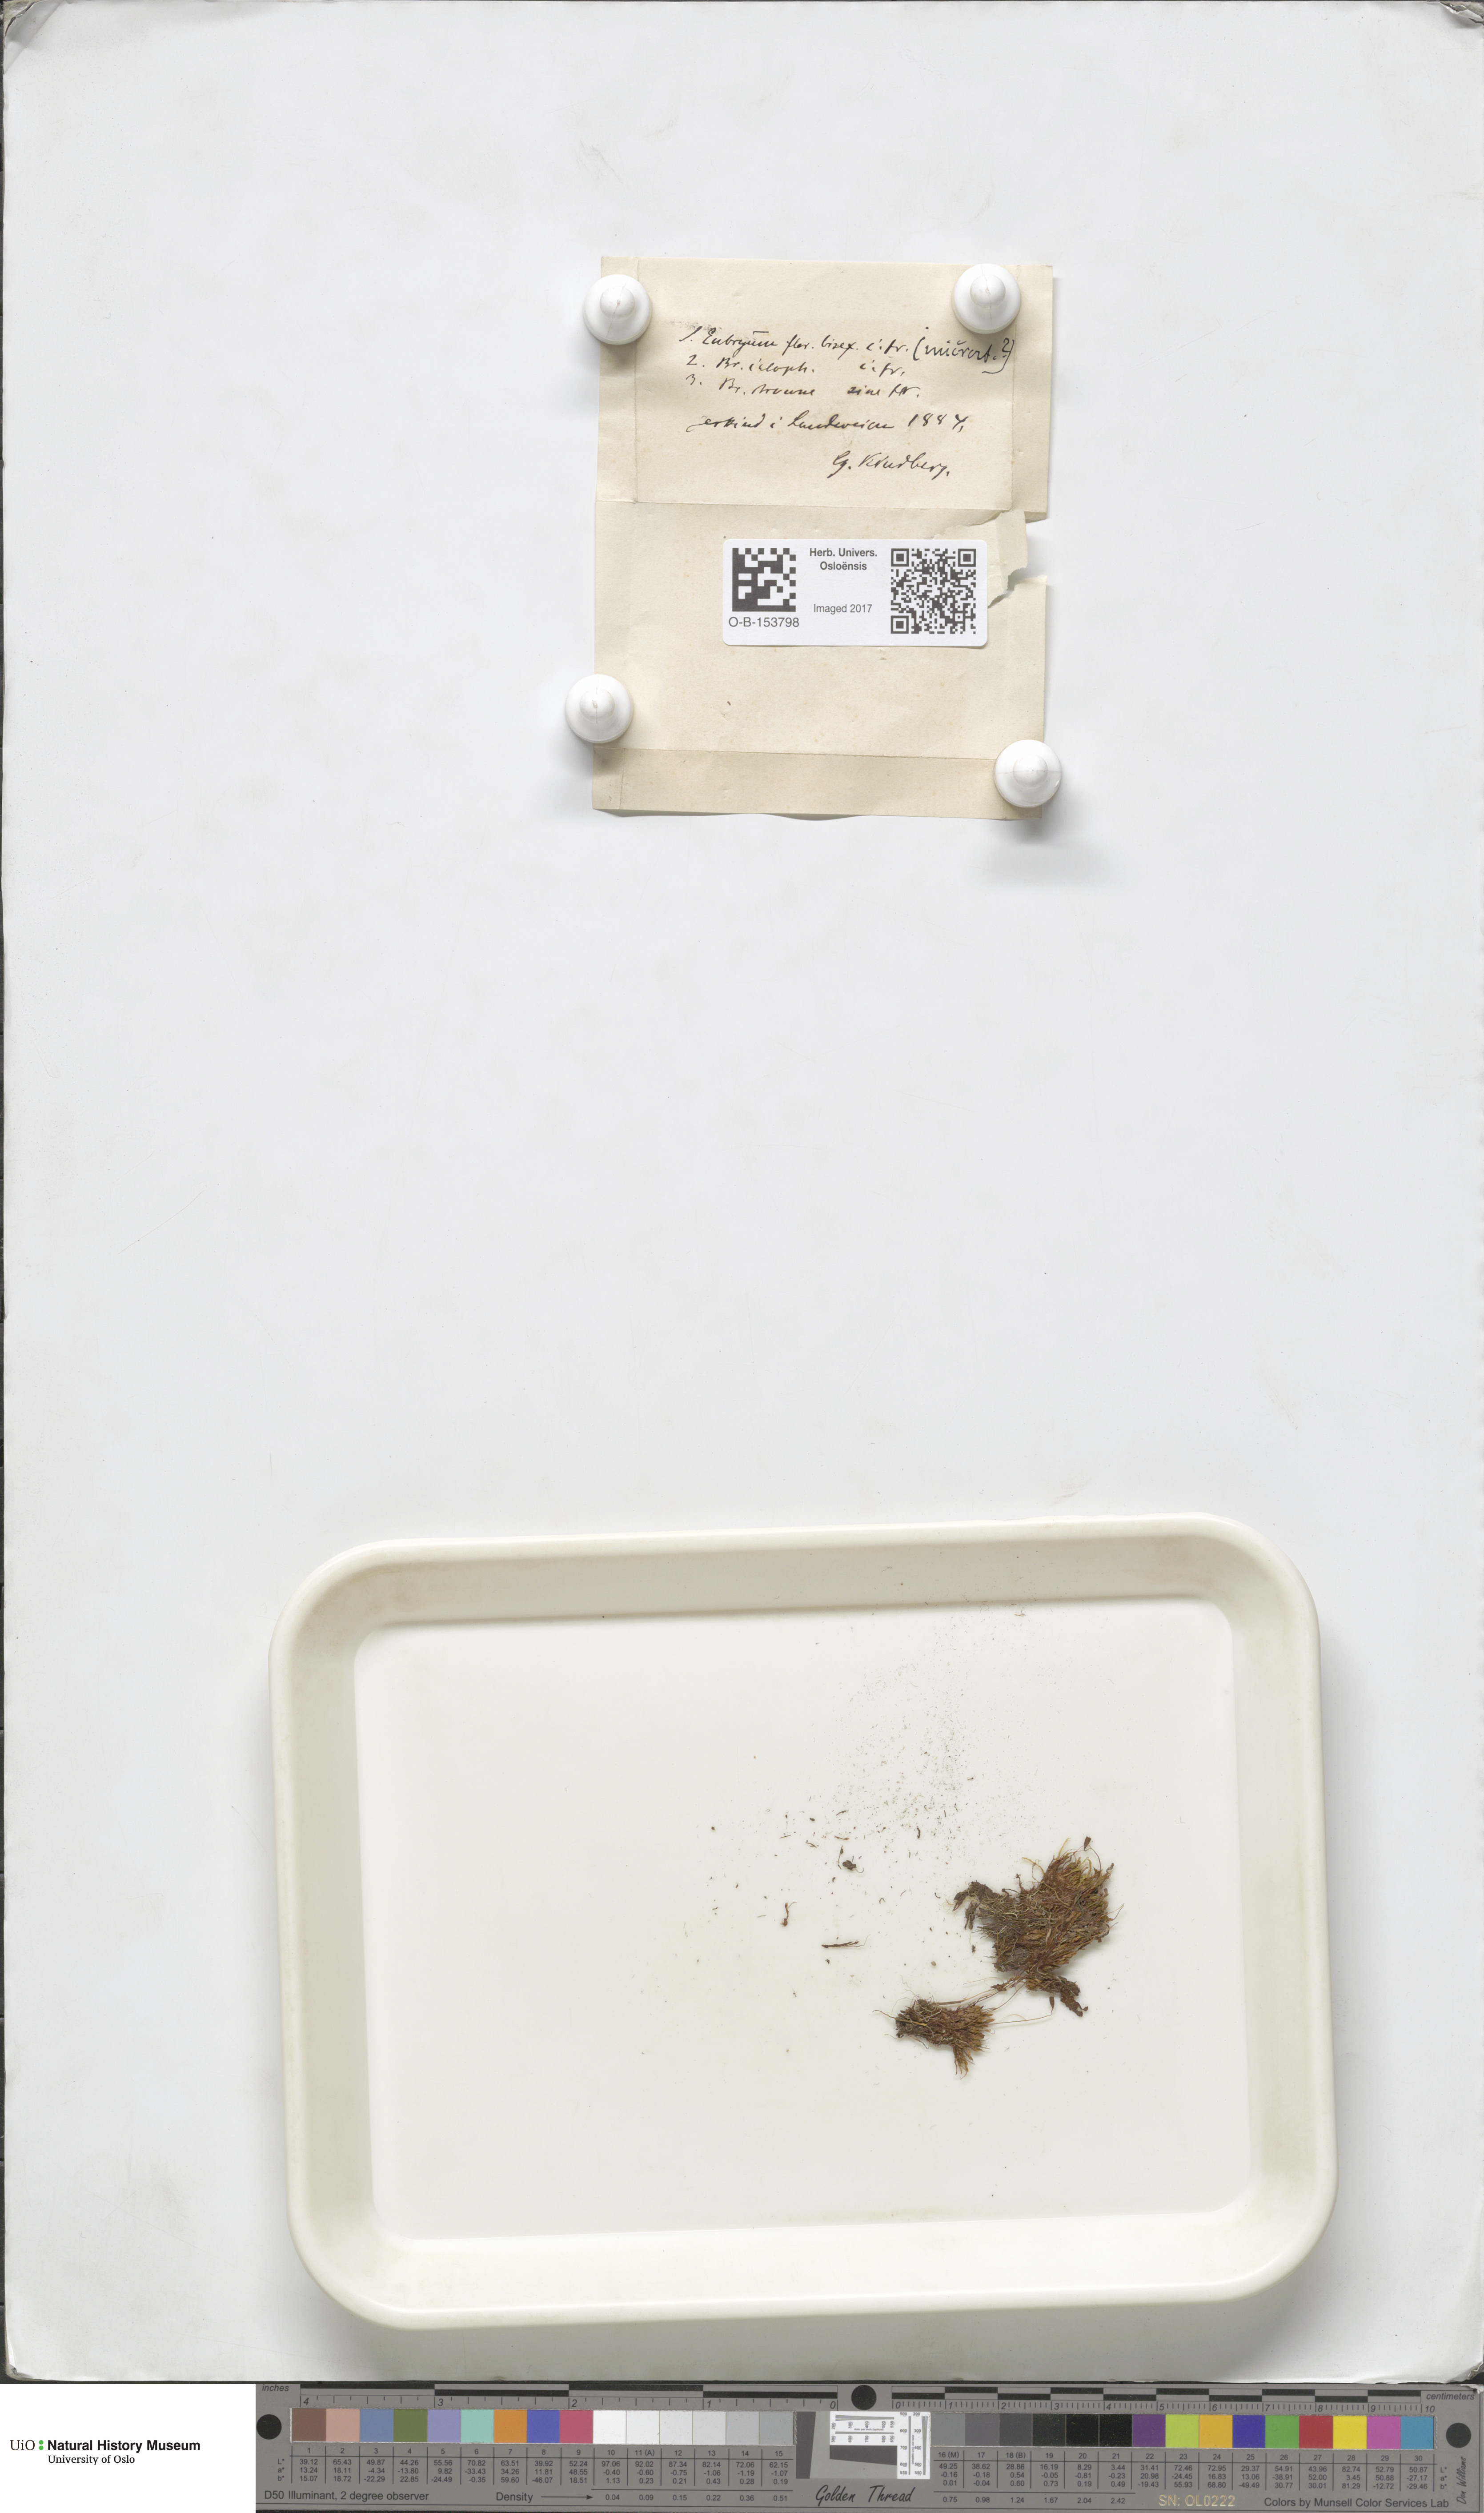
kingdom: Plantae
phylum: Bryophyta
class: Bryopsida
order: Bryales
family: Bryaceae
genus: Ptychostomum
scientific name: Ptychostomum arcticum
